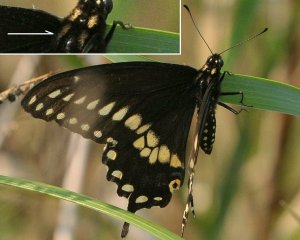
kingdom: Animalia
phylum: Arthropoda
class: Insecta
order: Lepidoptera
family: Papilionidae
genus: Papilio
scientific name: Papilio polyxenes
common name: Black Swallowtail
